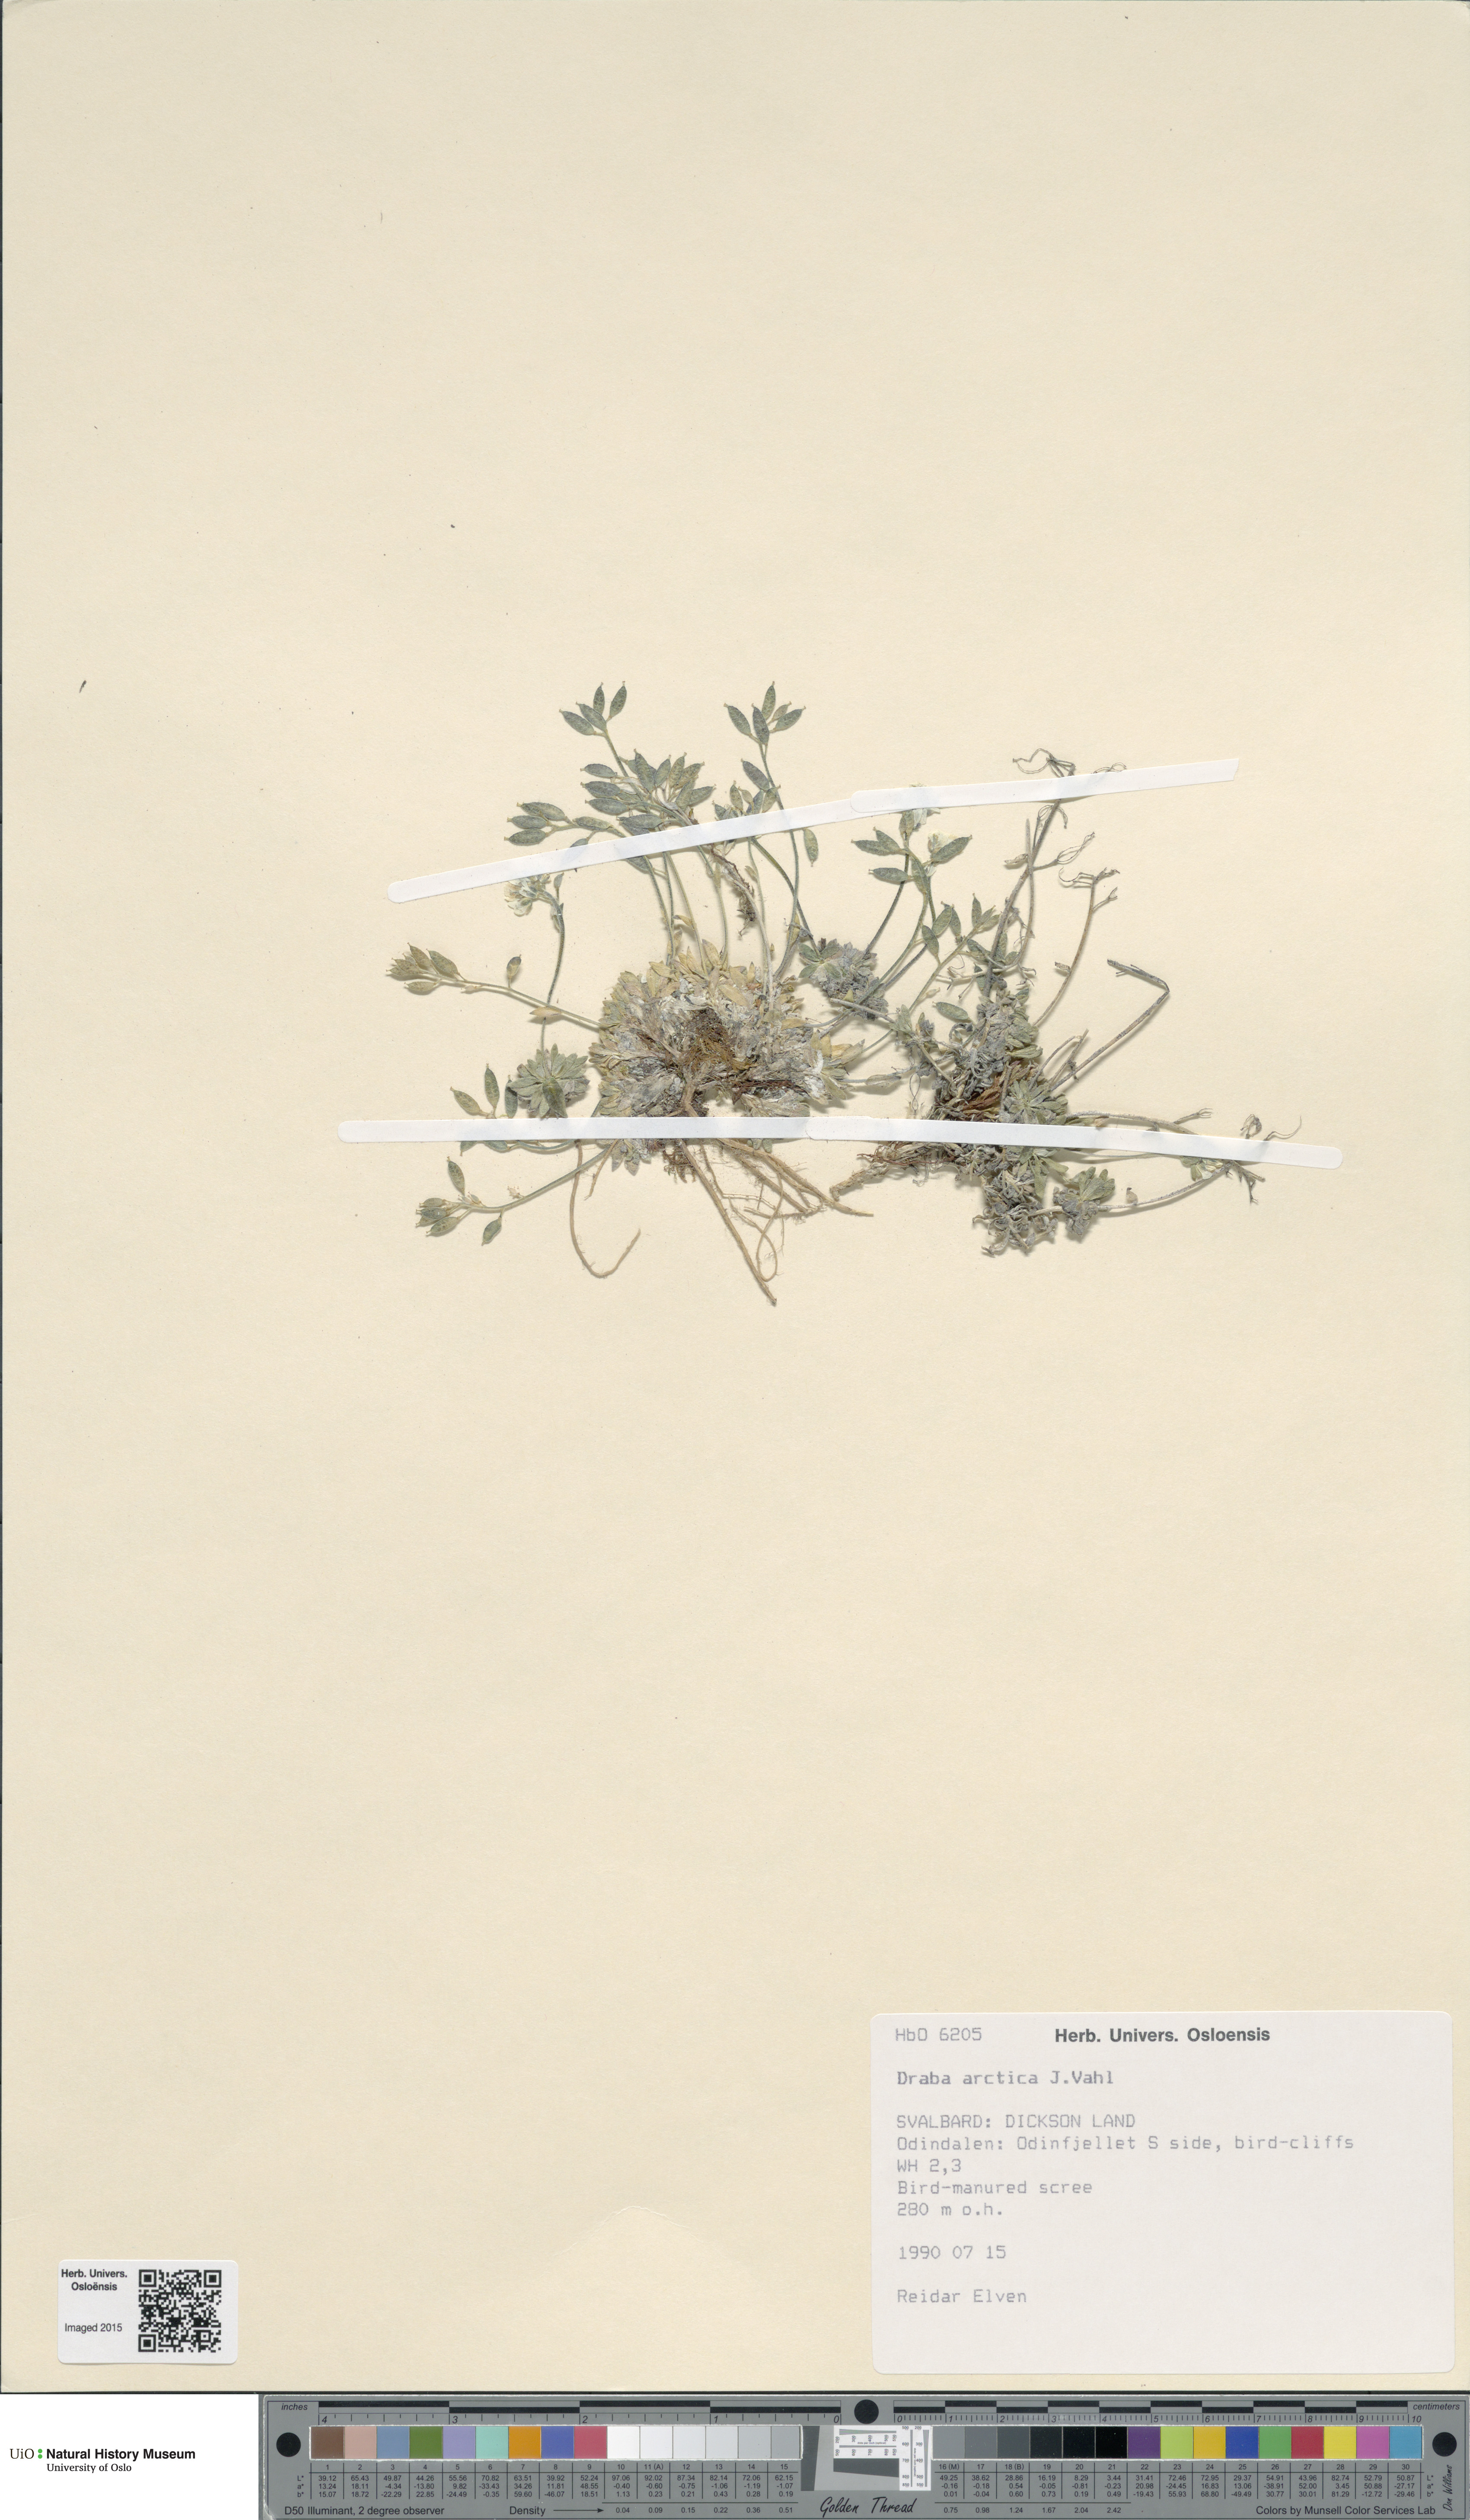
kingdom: Plantae
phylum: Tracheophyta
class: Magnoliopsida
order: Brassicales
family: Brassicaceae
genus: Draba
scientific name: Draba arctica
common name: Arctic draba
